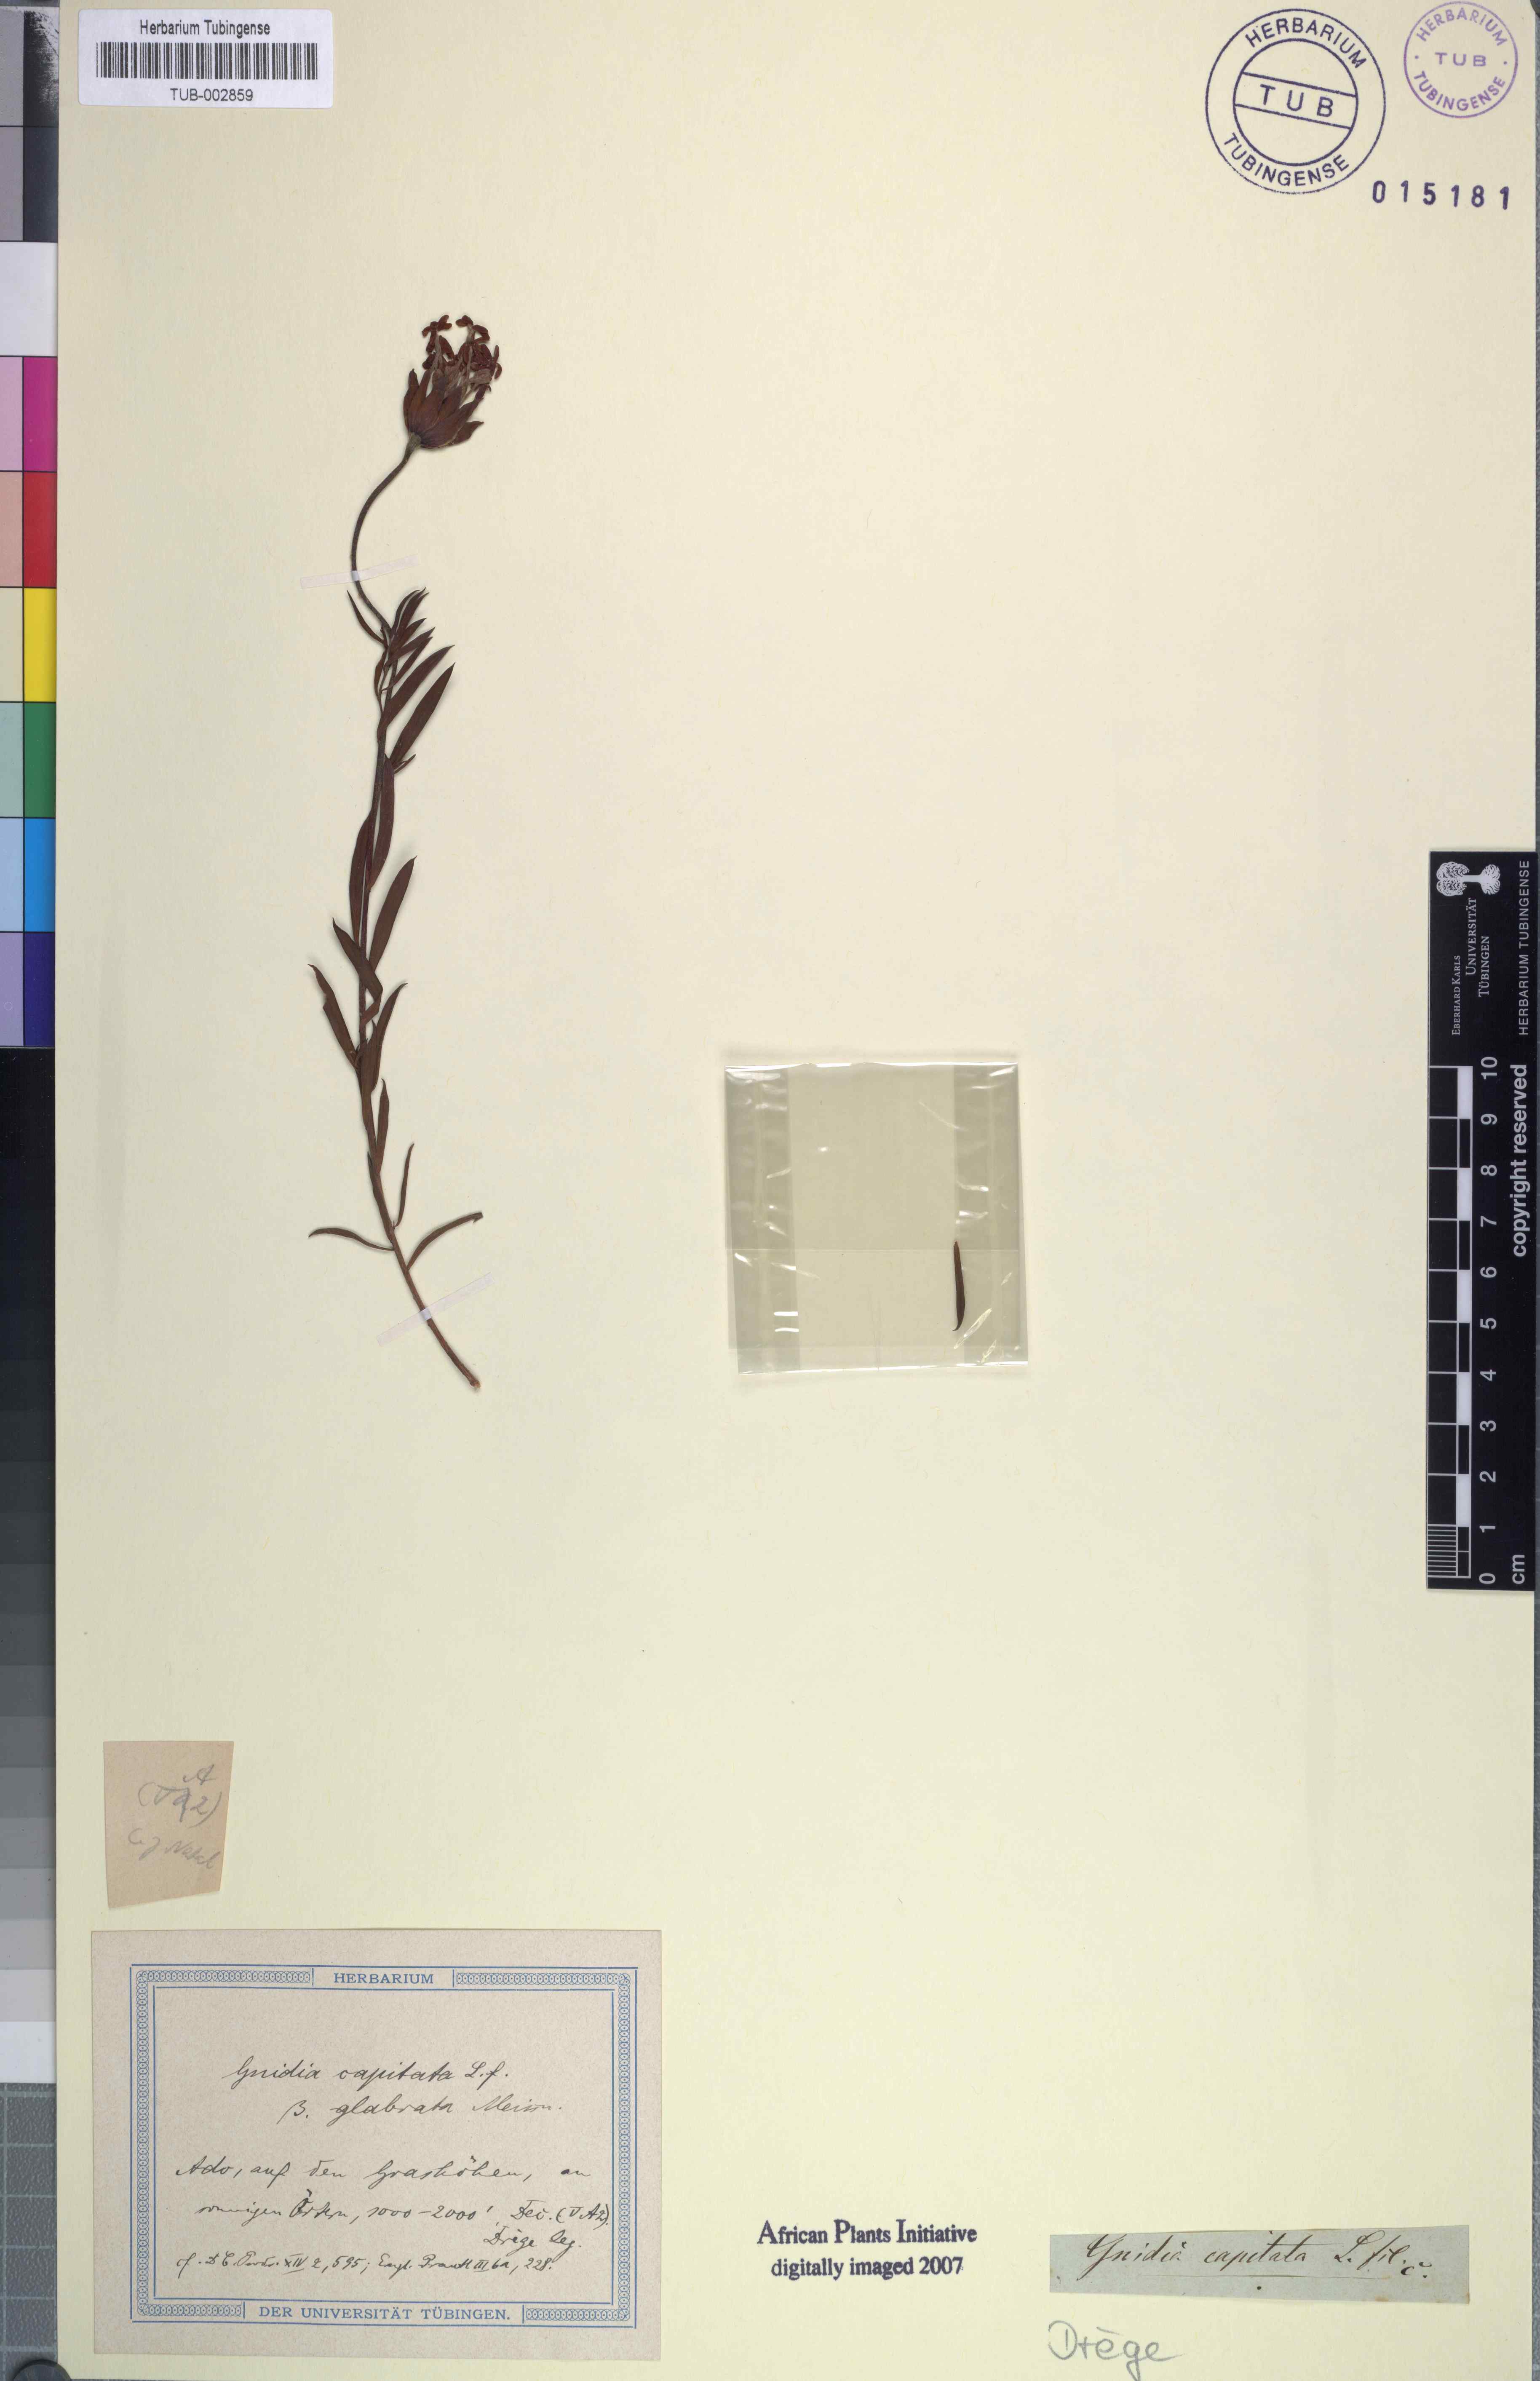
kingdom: Plantae
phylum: Tracheophyta
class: Magnoliopsida
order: Malvales
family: Thymelaeaceae
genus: Gnidia
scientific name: Gnidia capitata
